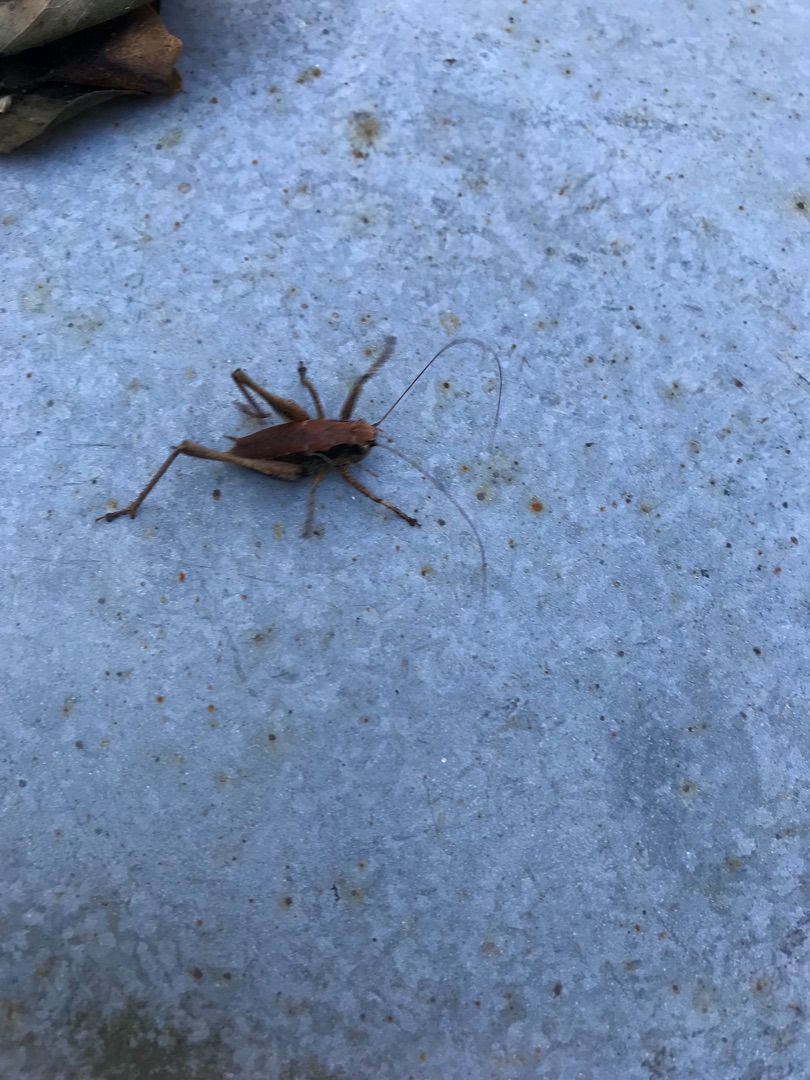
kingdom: Animalia
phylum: Arthropoda
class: Insecta
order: Orthoptera
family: Tettigoniidae
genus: Pholidoptera
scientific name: Pholidoptera griseoaptera
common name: Buskgræshoppe
